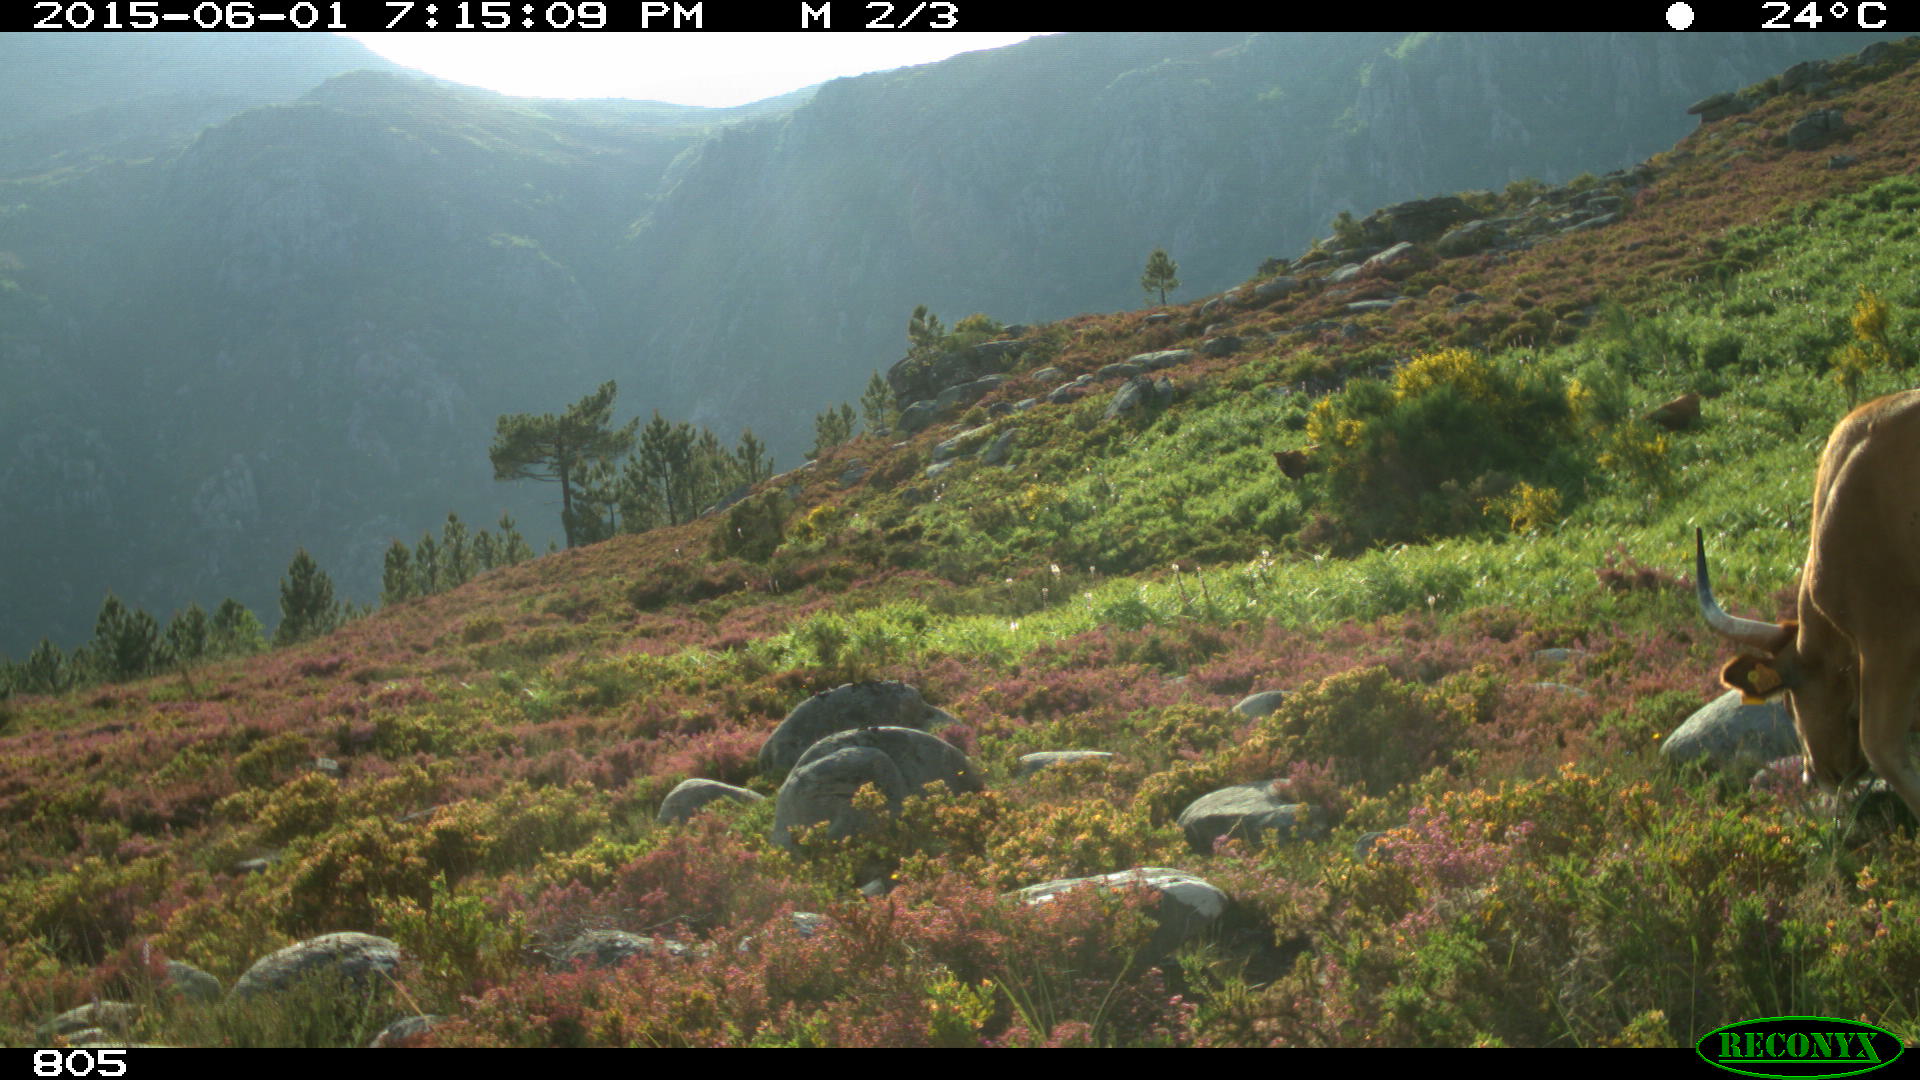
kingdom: Animalia
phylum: Chordata
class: Mammalia
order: Artiodactyla
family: Bovidae
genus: Bos
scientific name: Bos taurus
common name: Domesticated cattle
